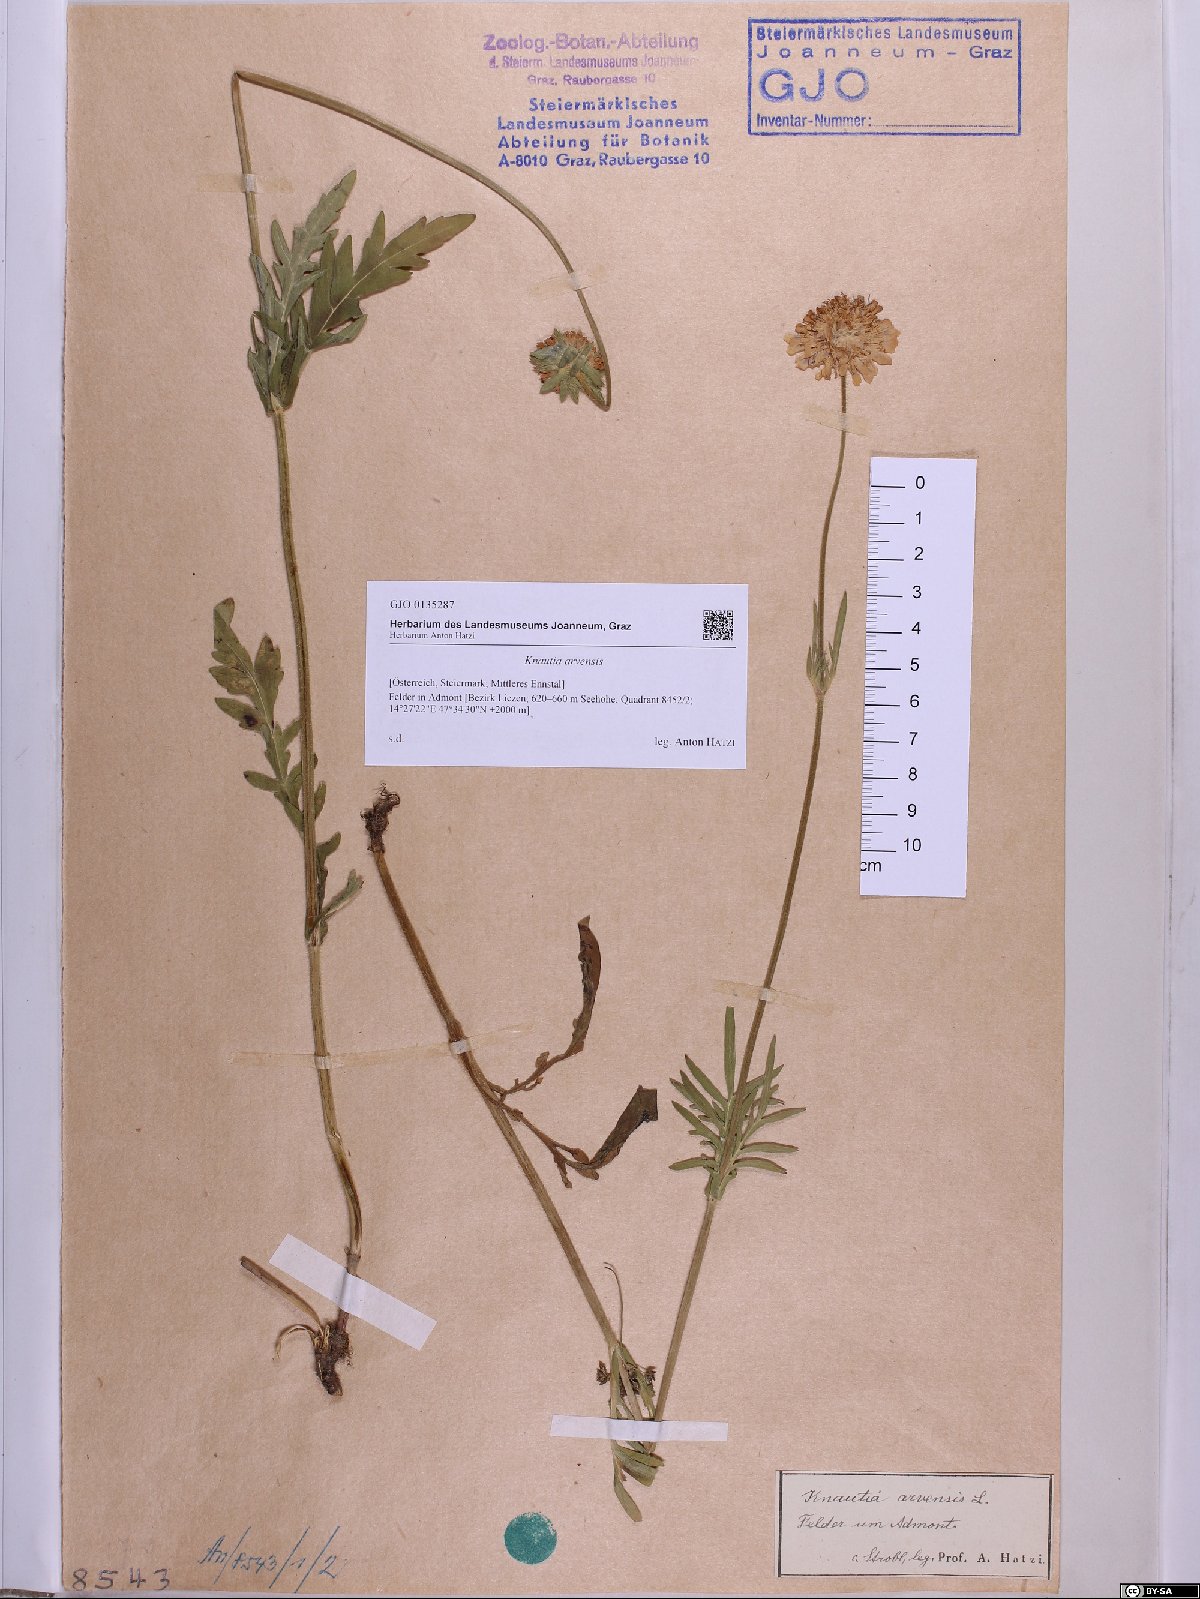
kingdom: Plantae
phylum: Tracheophyta
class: Magnoliopsida
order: Dipsacales
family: Caprifoliaceae
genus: Knautia
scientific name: Knautia arvensis
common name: Field scabiosa
